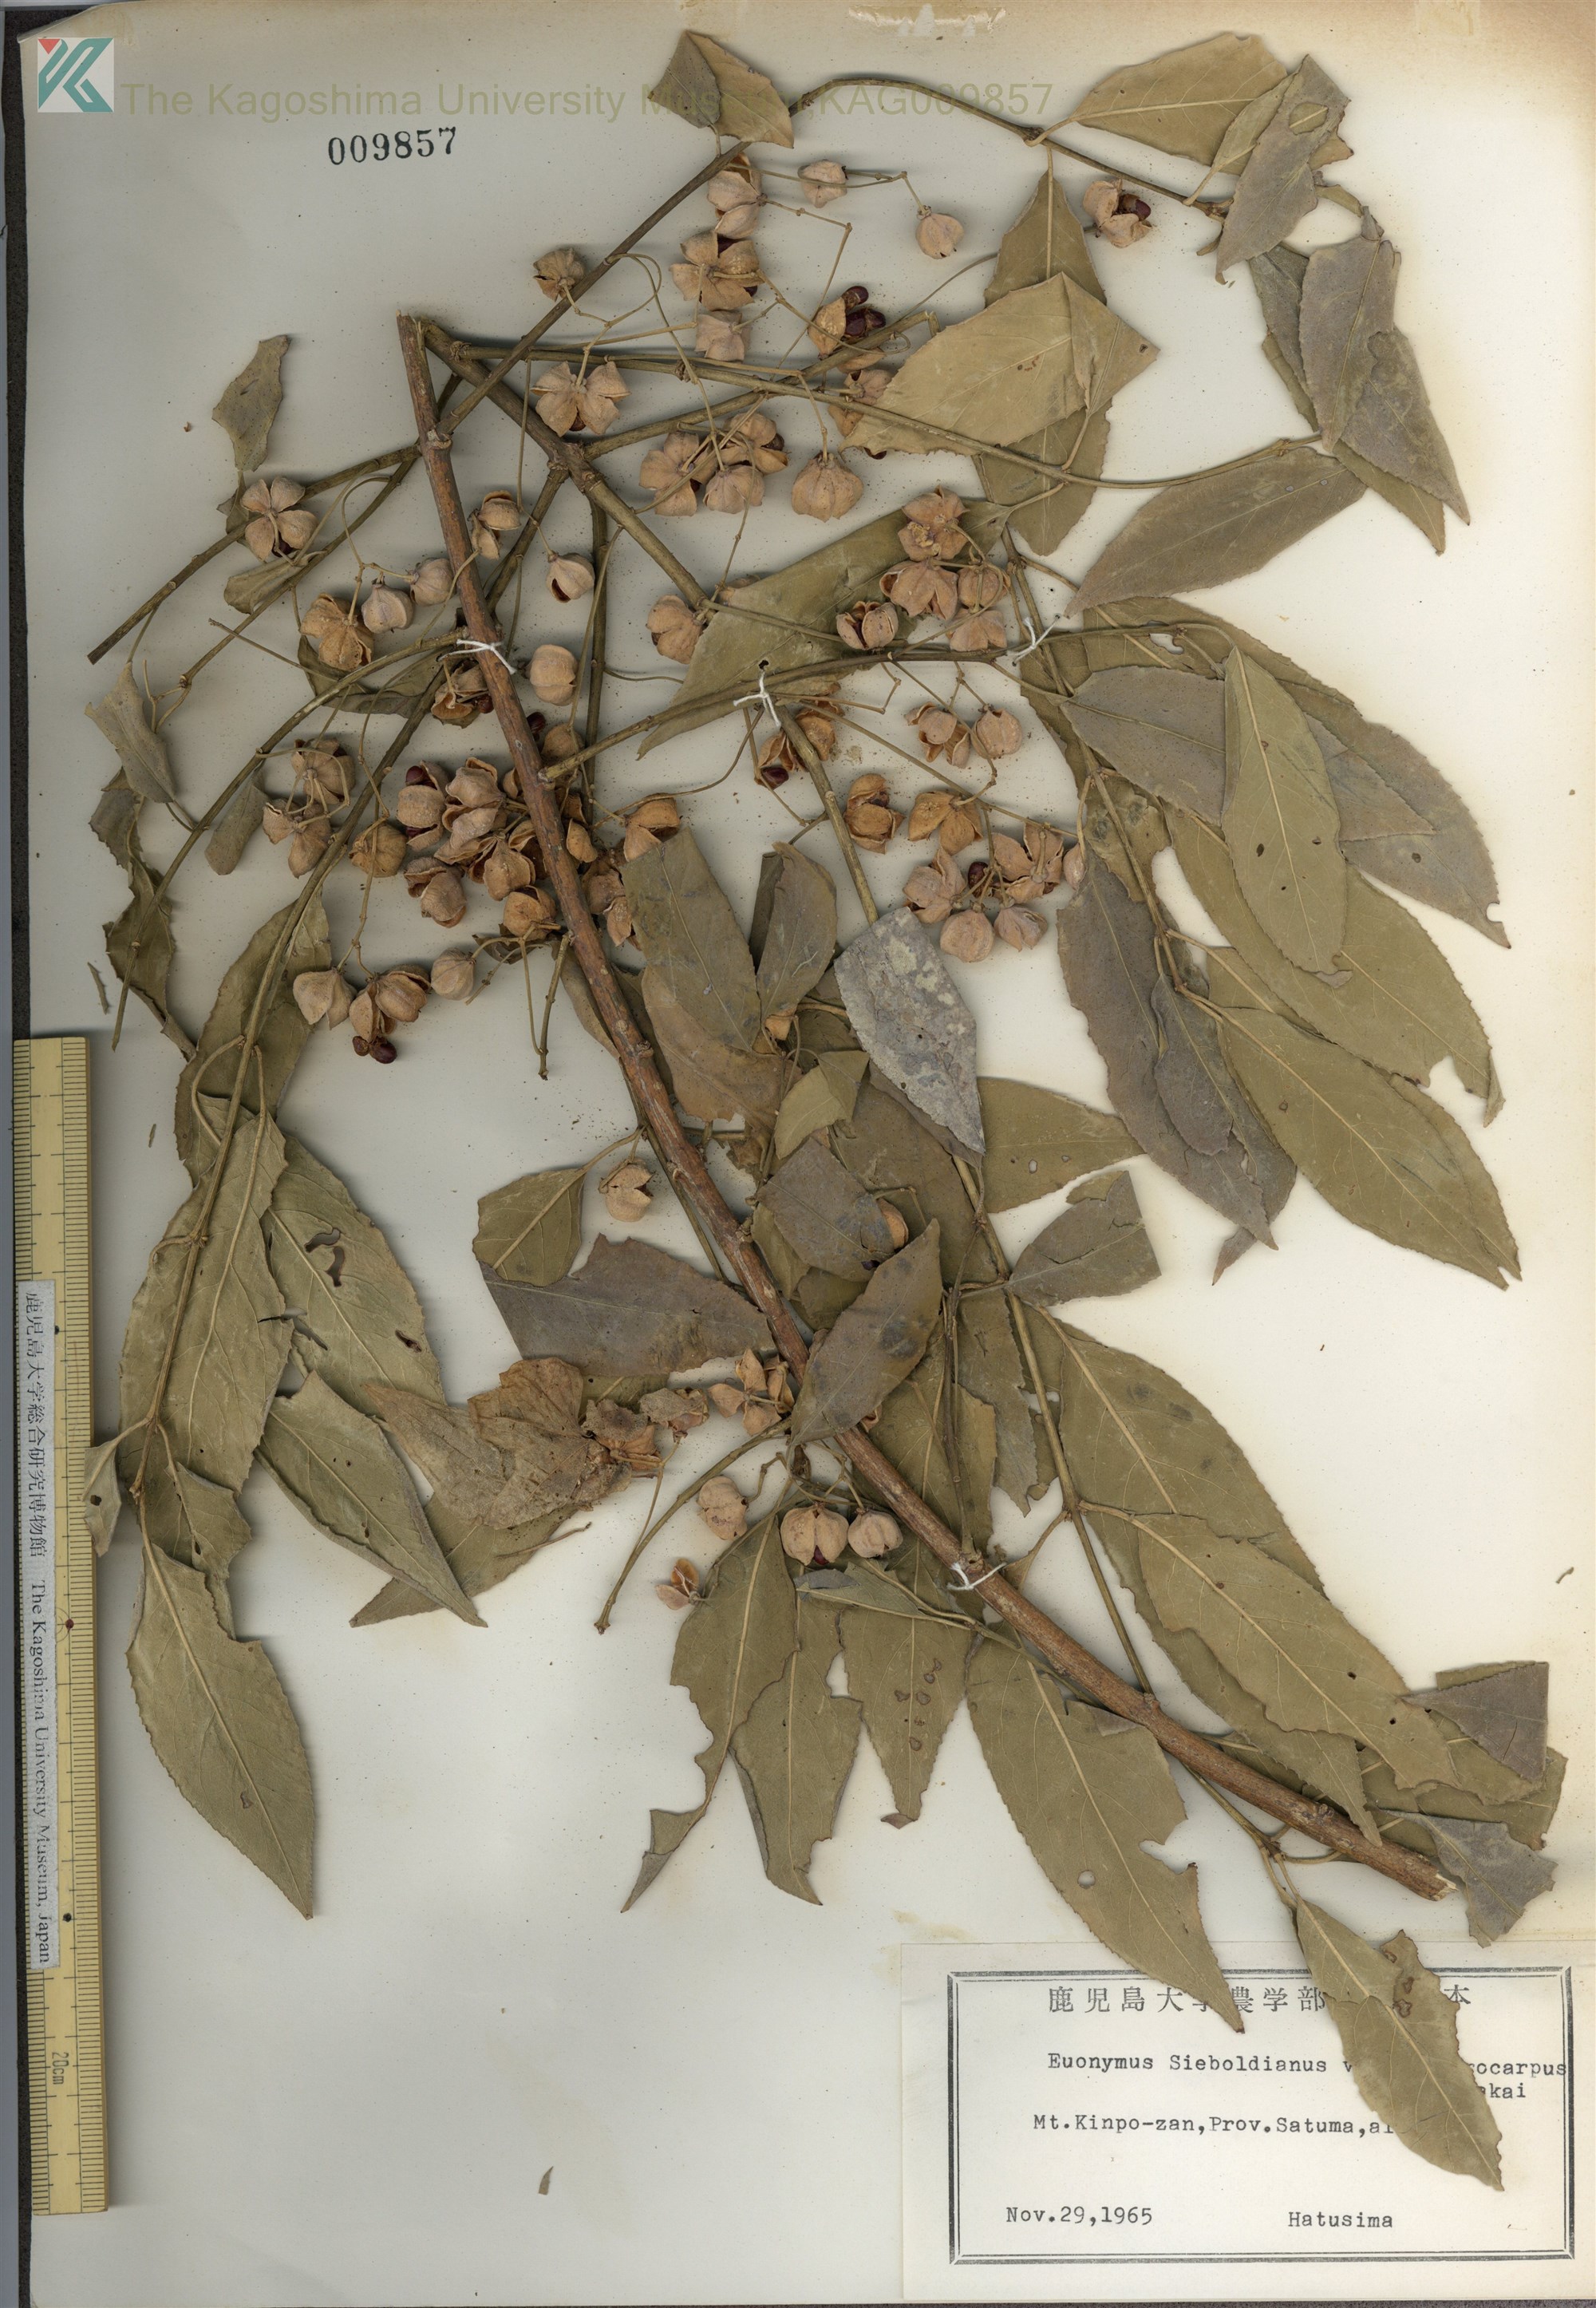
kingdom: Plantae
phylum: Tracheophyta
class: Magnoliopsida
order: Celastrales
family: Celastraceae
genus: Euonymus
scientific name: Euonymus hamiltonianus
